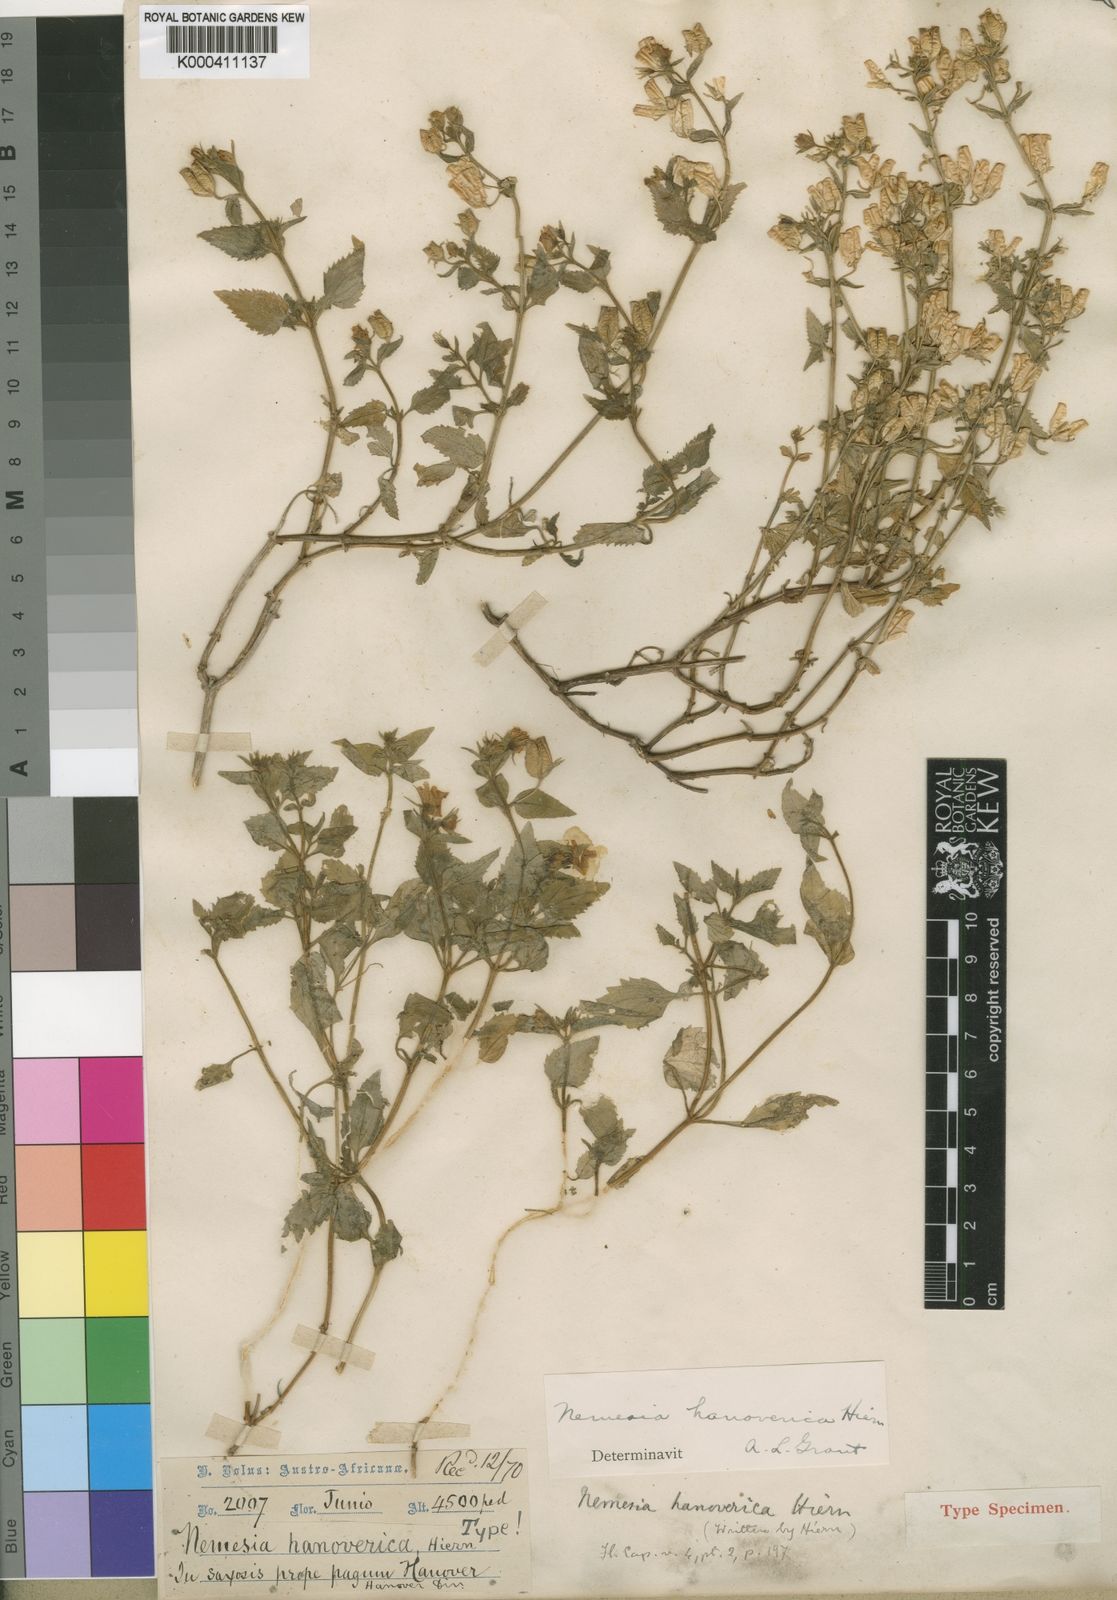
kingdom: Plantae
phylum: Tracheophyta
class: Magnoliopsida
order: Lamiales
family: Scrophulariaceae
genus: Nemesia
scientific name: Nemesia hanoverica
